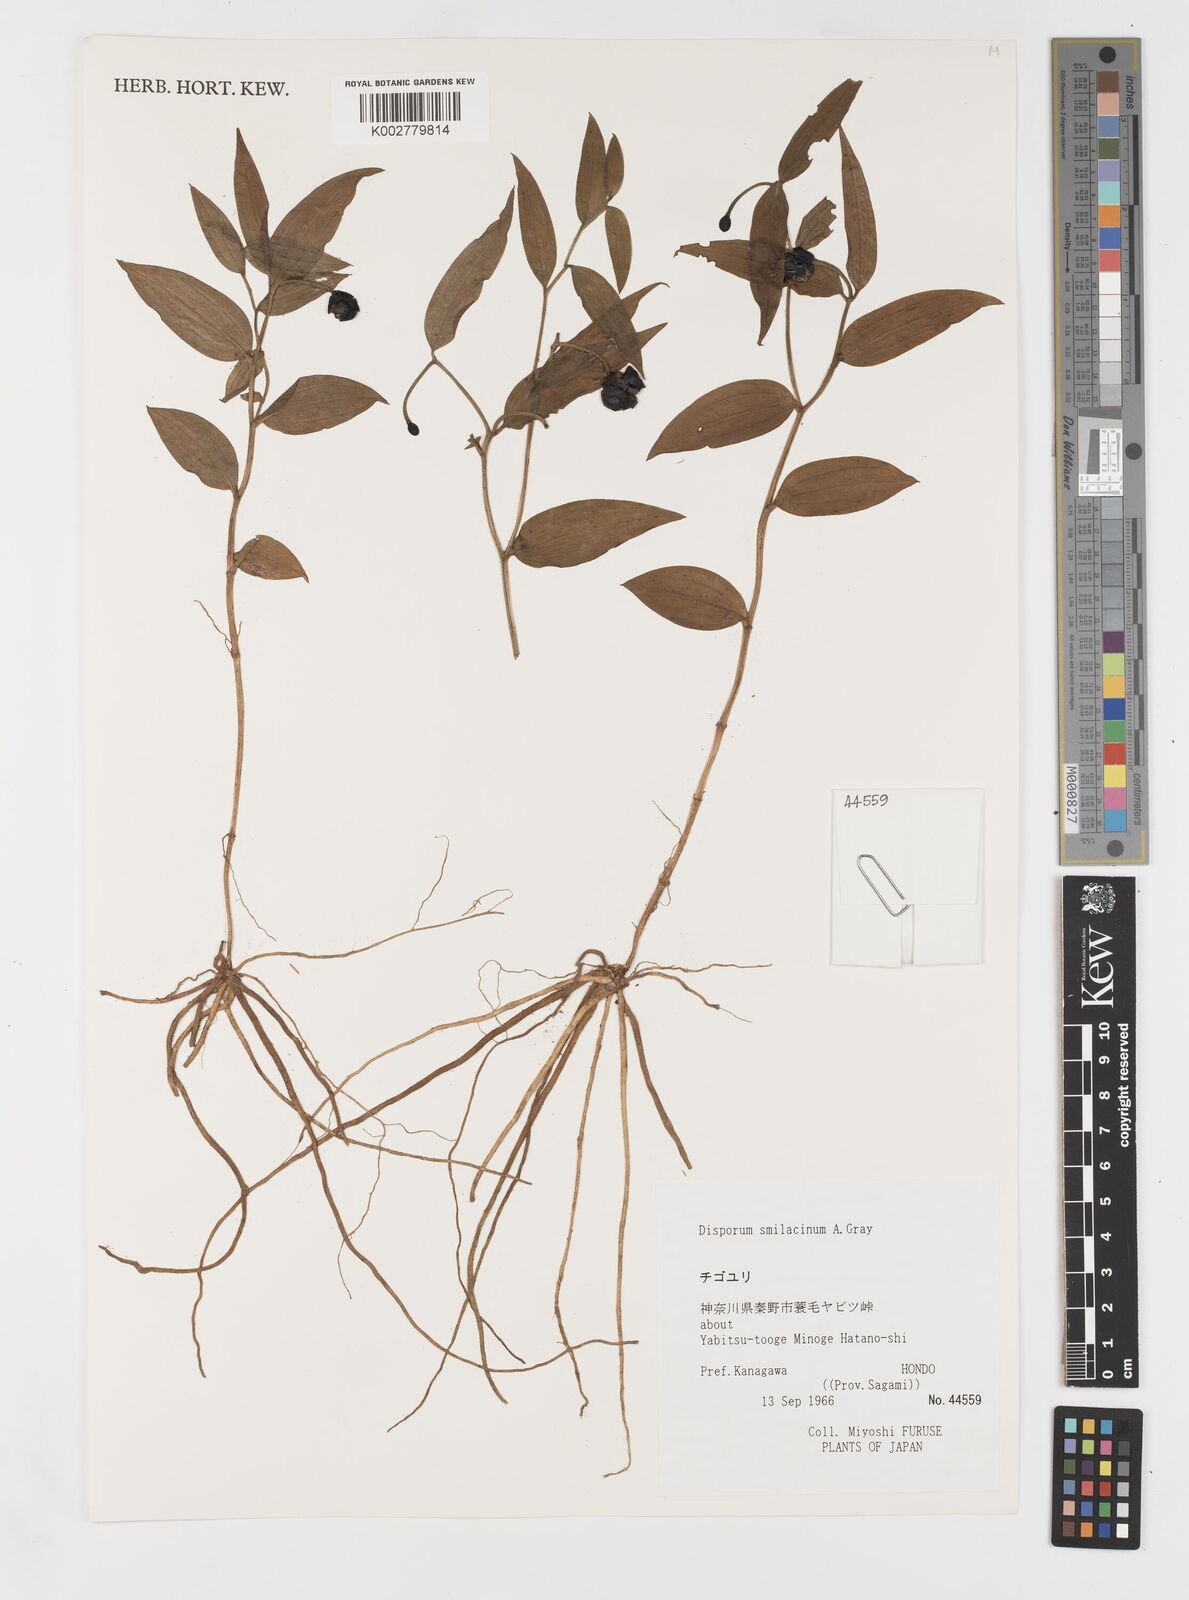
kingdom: Plantae
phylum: Tracheophyta
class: Liliopsida
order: Liliales
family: Colchicaceae
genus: Disporum
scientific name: Disporum smilacinum
